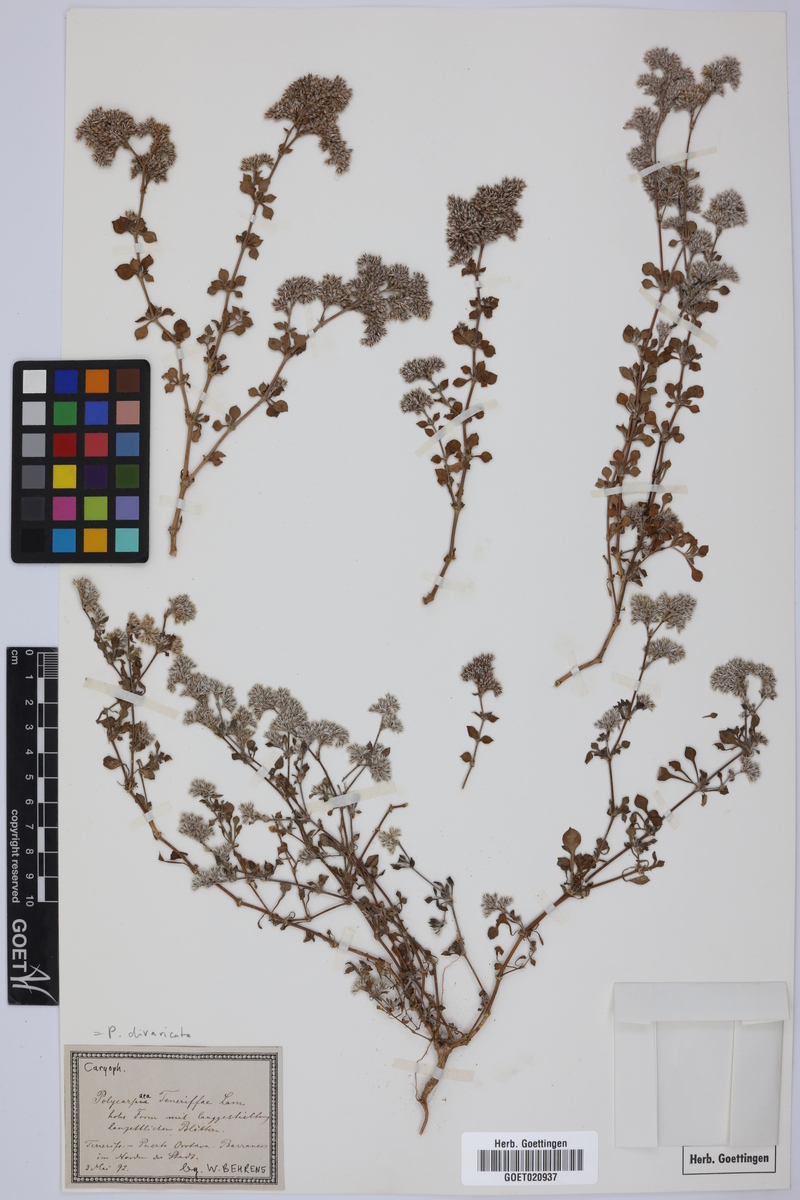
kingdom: Plantae
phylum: Tracheophyta
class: Magnoliopsida
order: Caryophyllales
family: Caryophyllaceae
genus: Polycarpaea
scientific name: Polycarpaea divaricata
